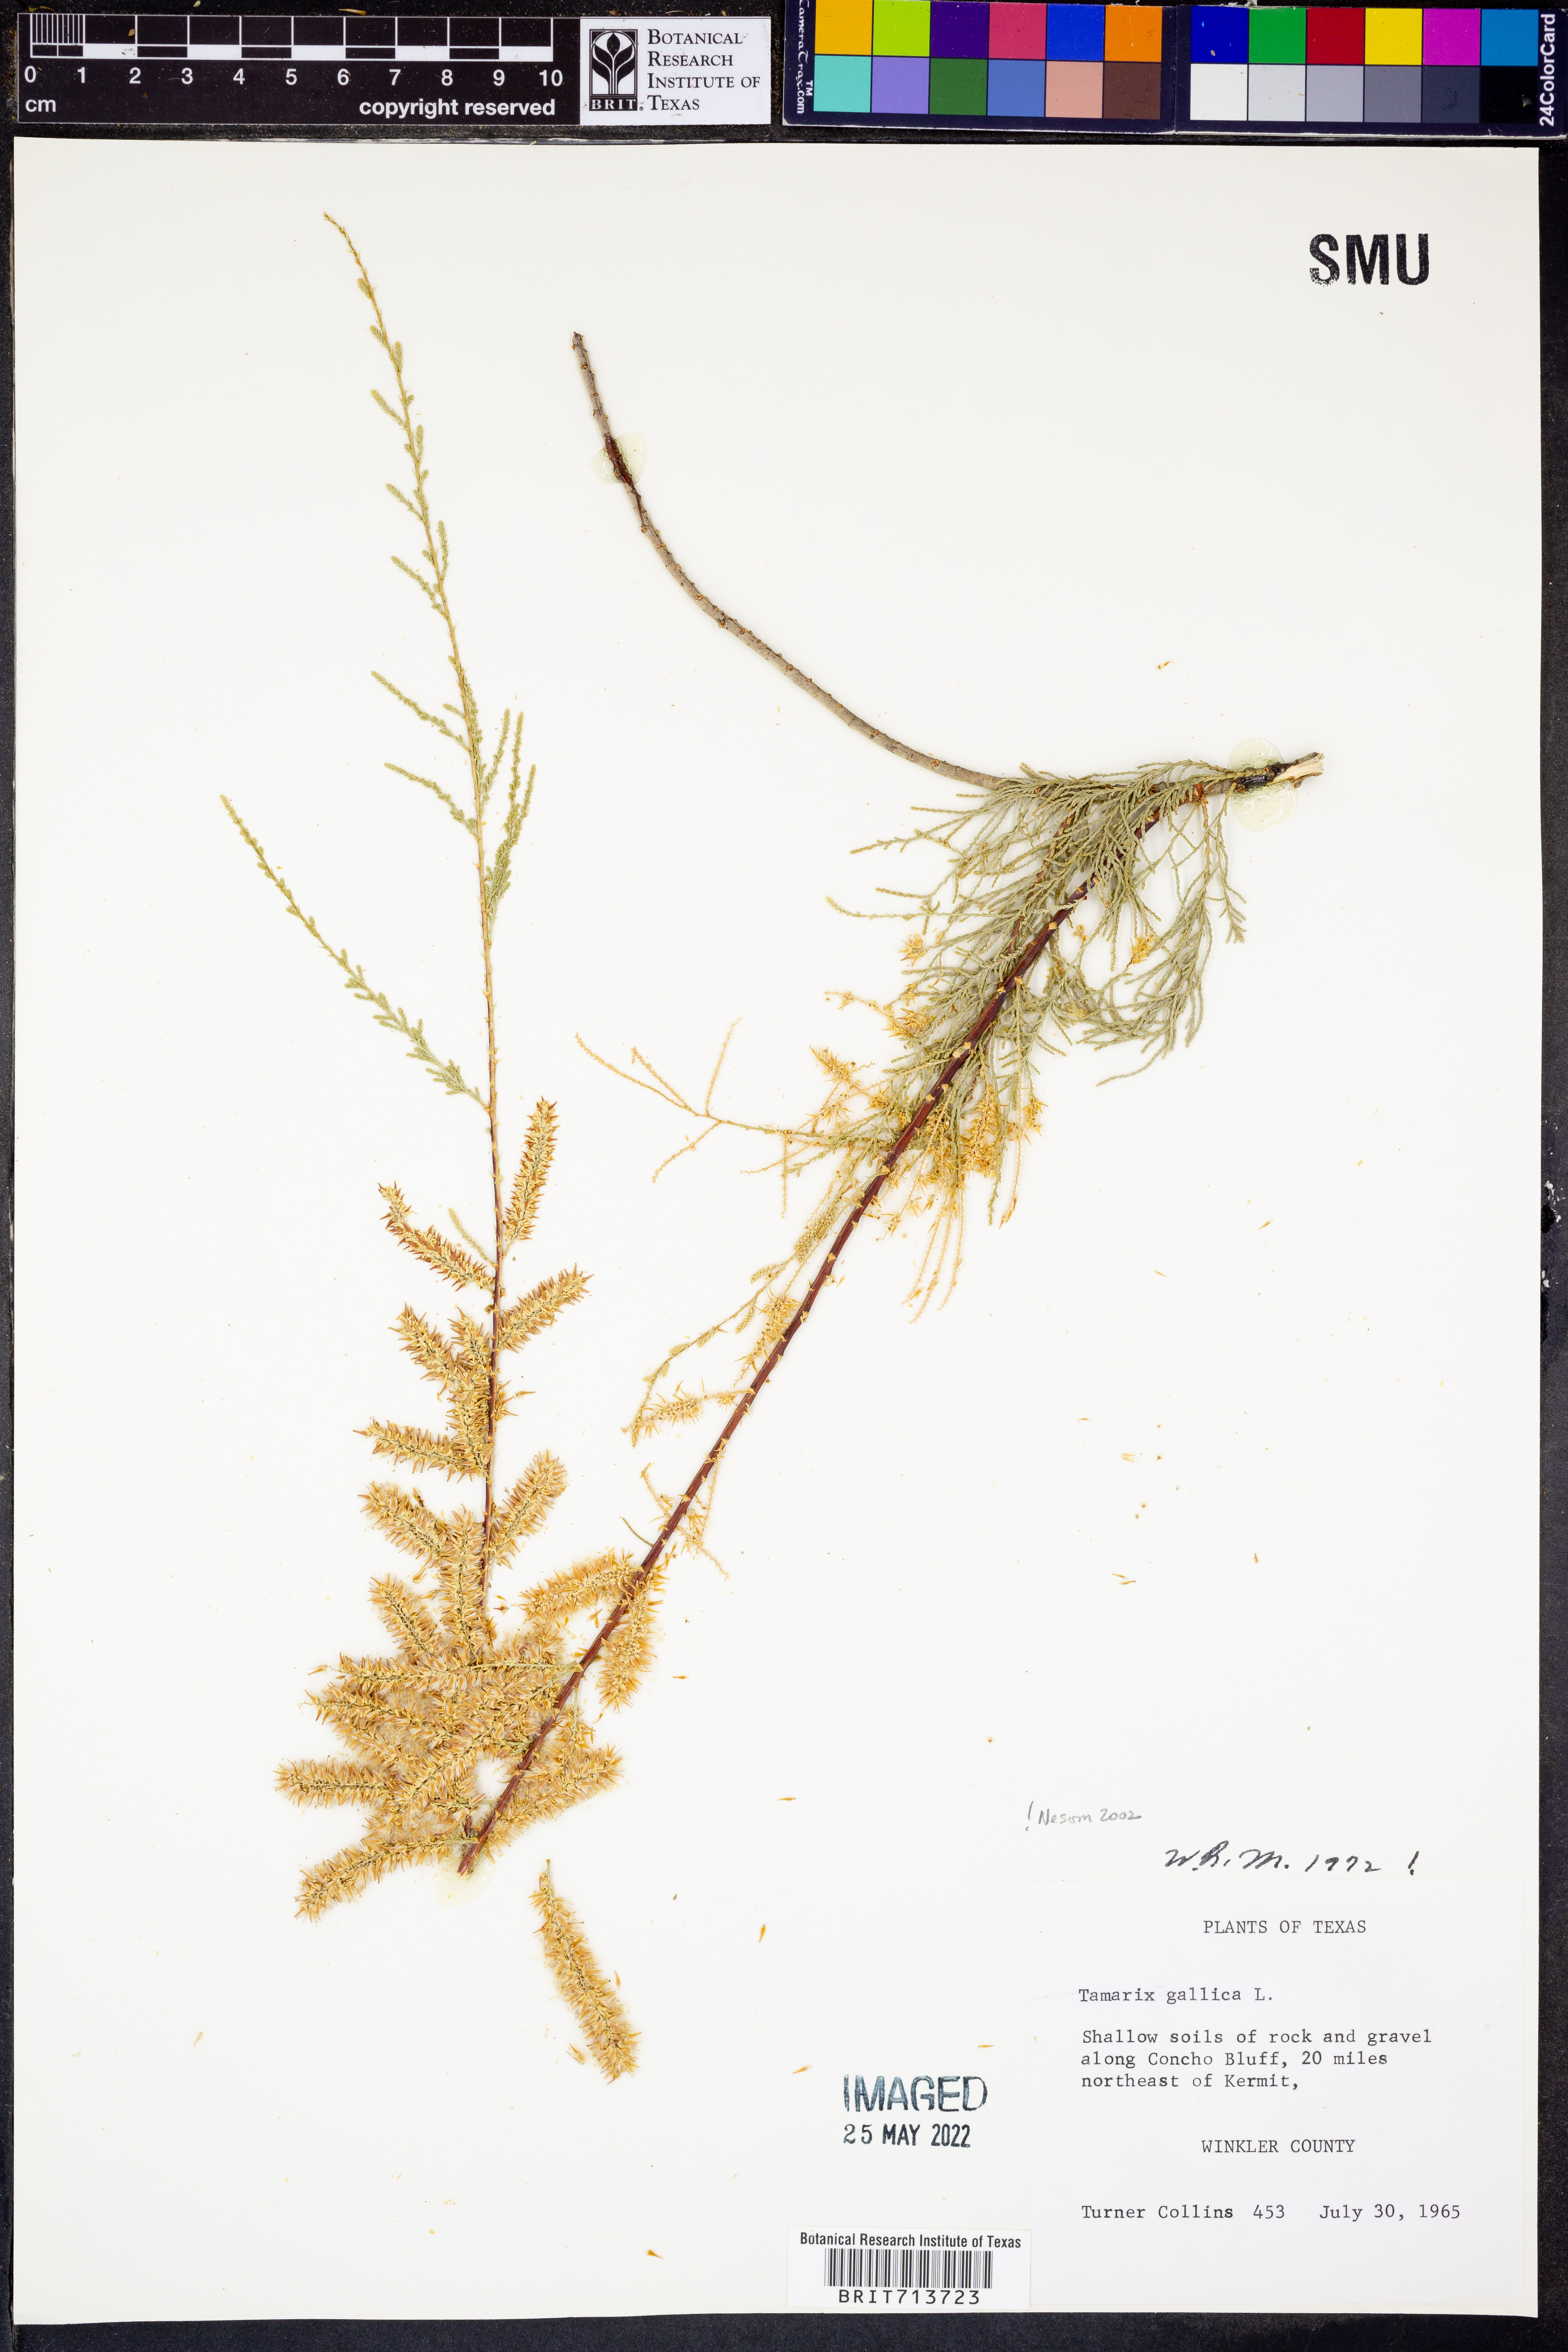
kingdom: Plantae
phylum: Tracheophyta
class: Magnoliopsida
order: Caryophyllales
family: Tamaricaceae
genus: Tamarix
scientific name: Tamarix gallica
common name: Tamarisk
